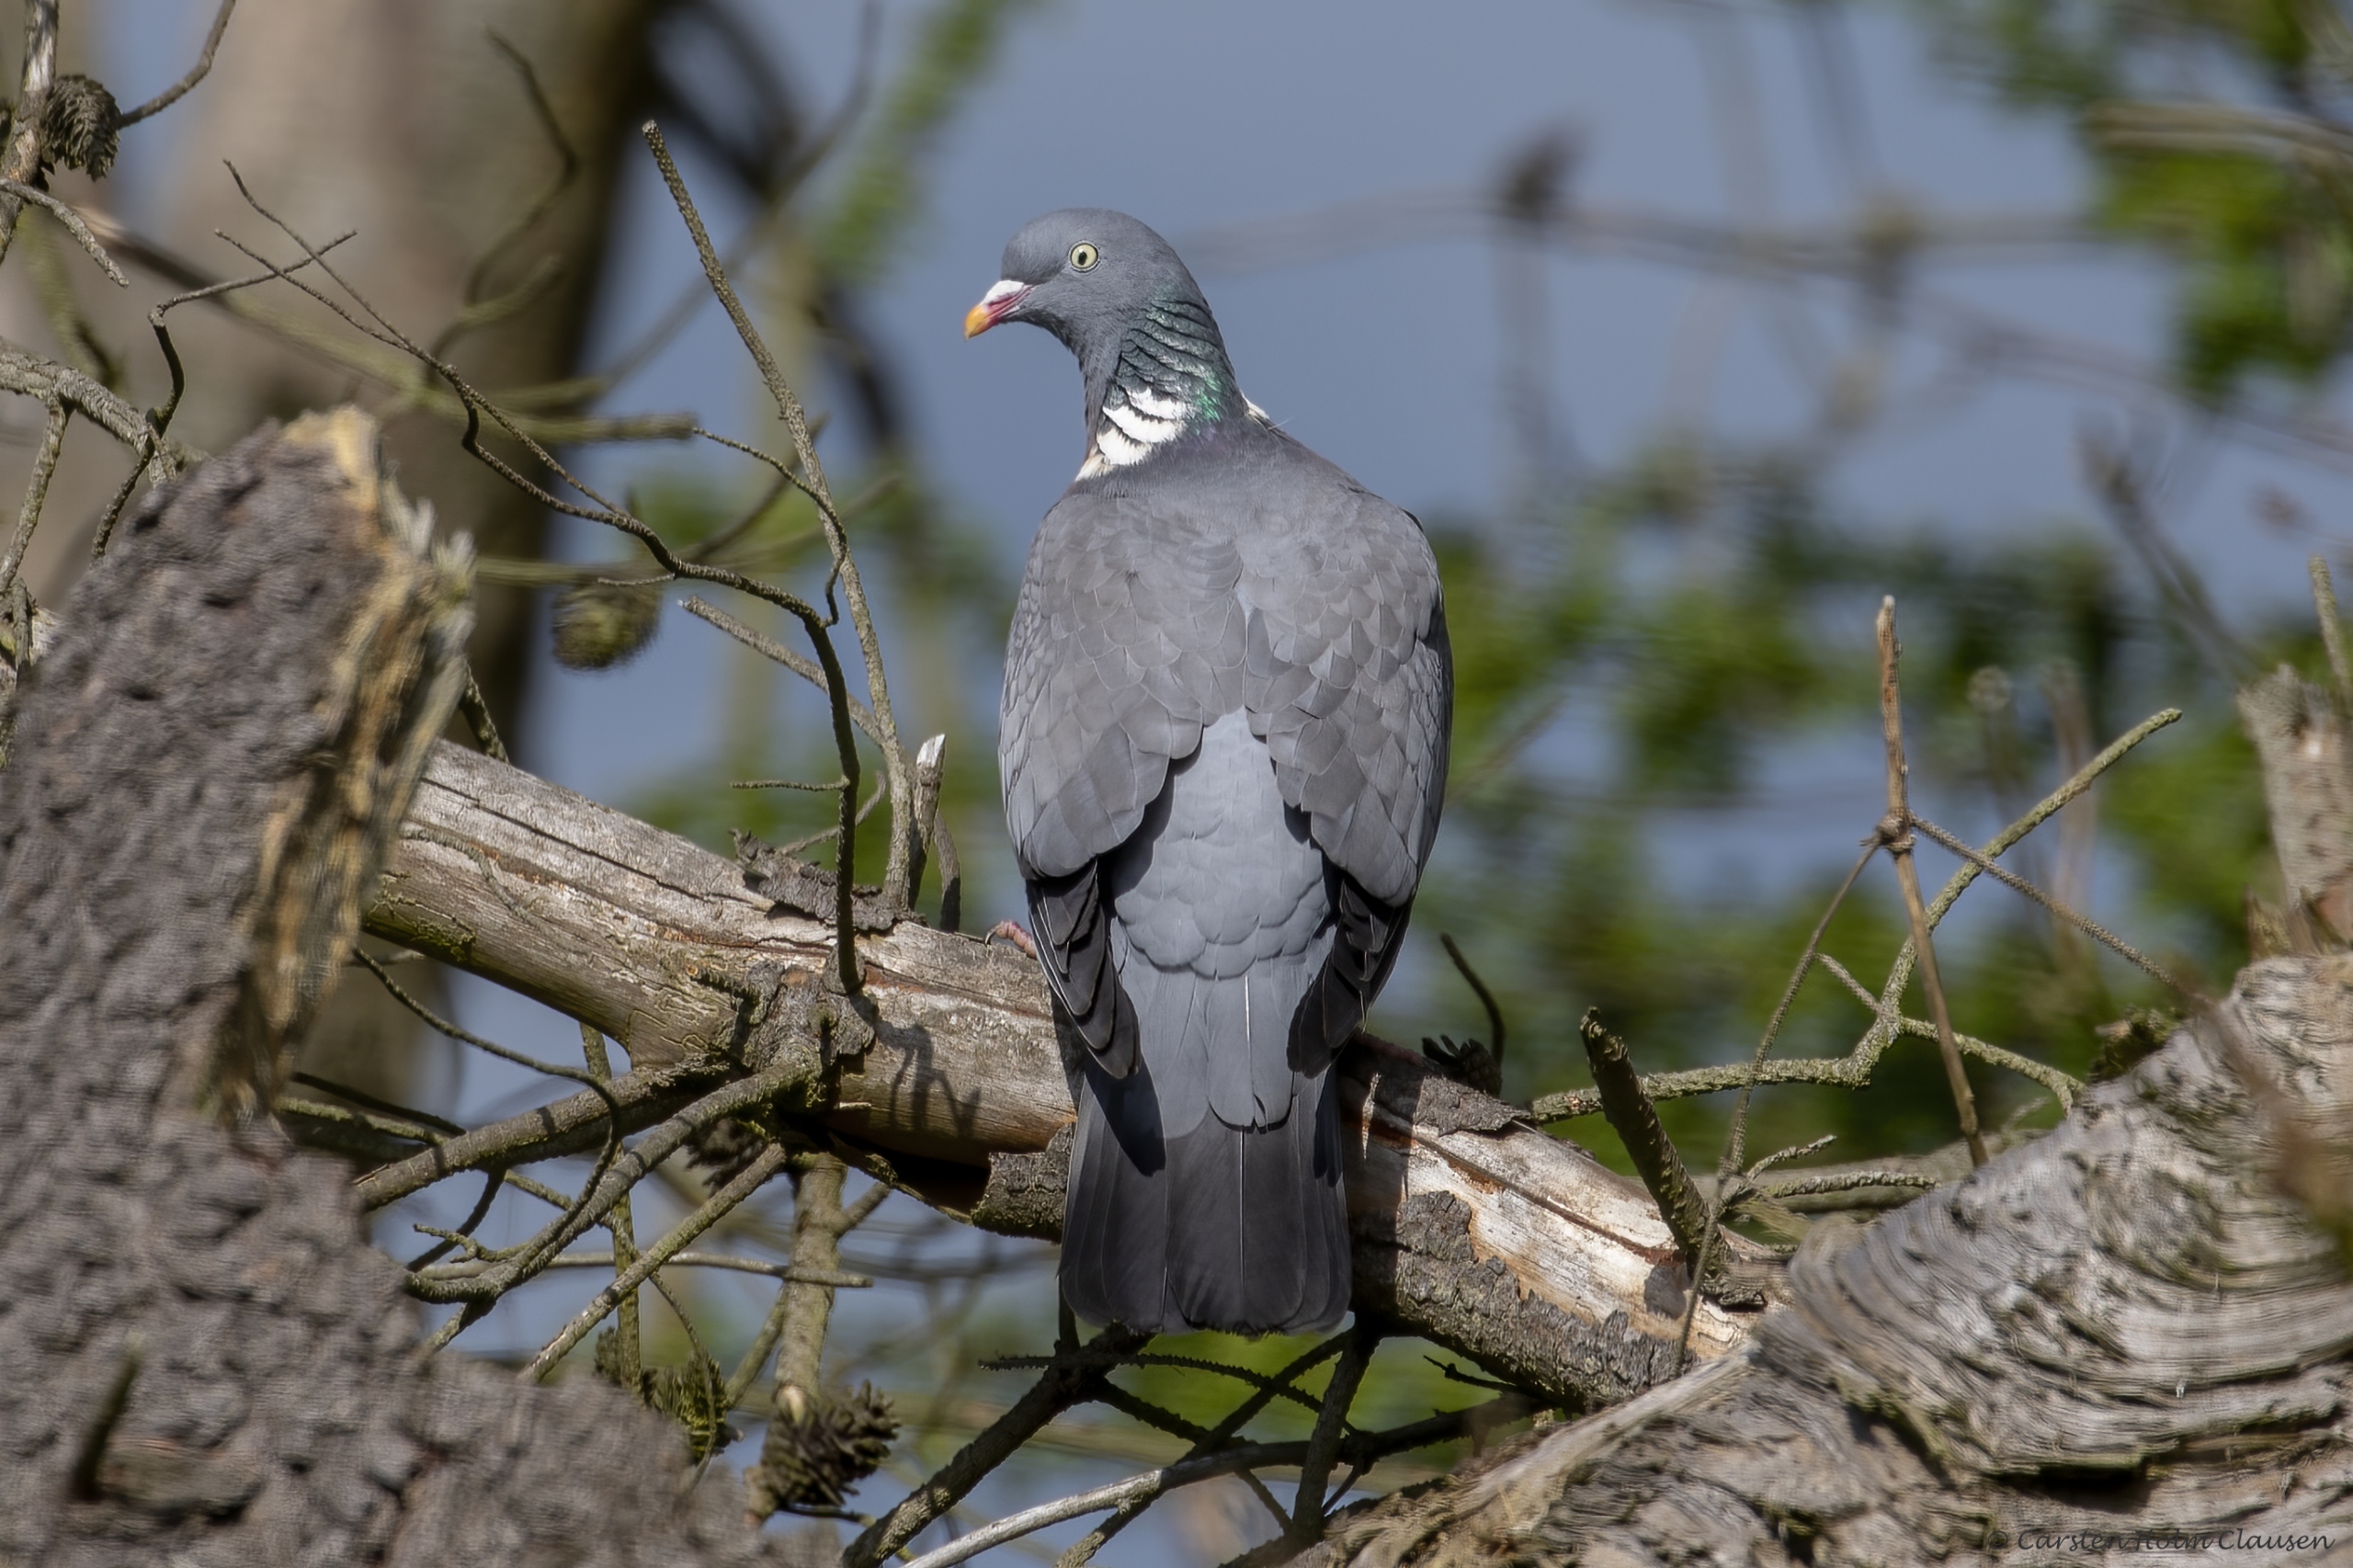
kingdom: Animalia
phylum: Chordata
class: Aves
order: Columbiformes
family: Columbidae
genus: Columba
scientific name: Columba palumbus
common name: Ringdue
